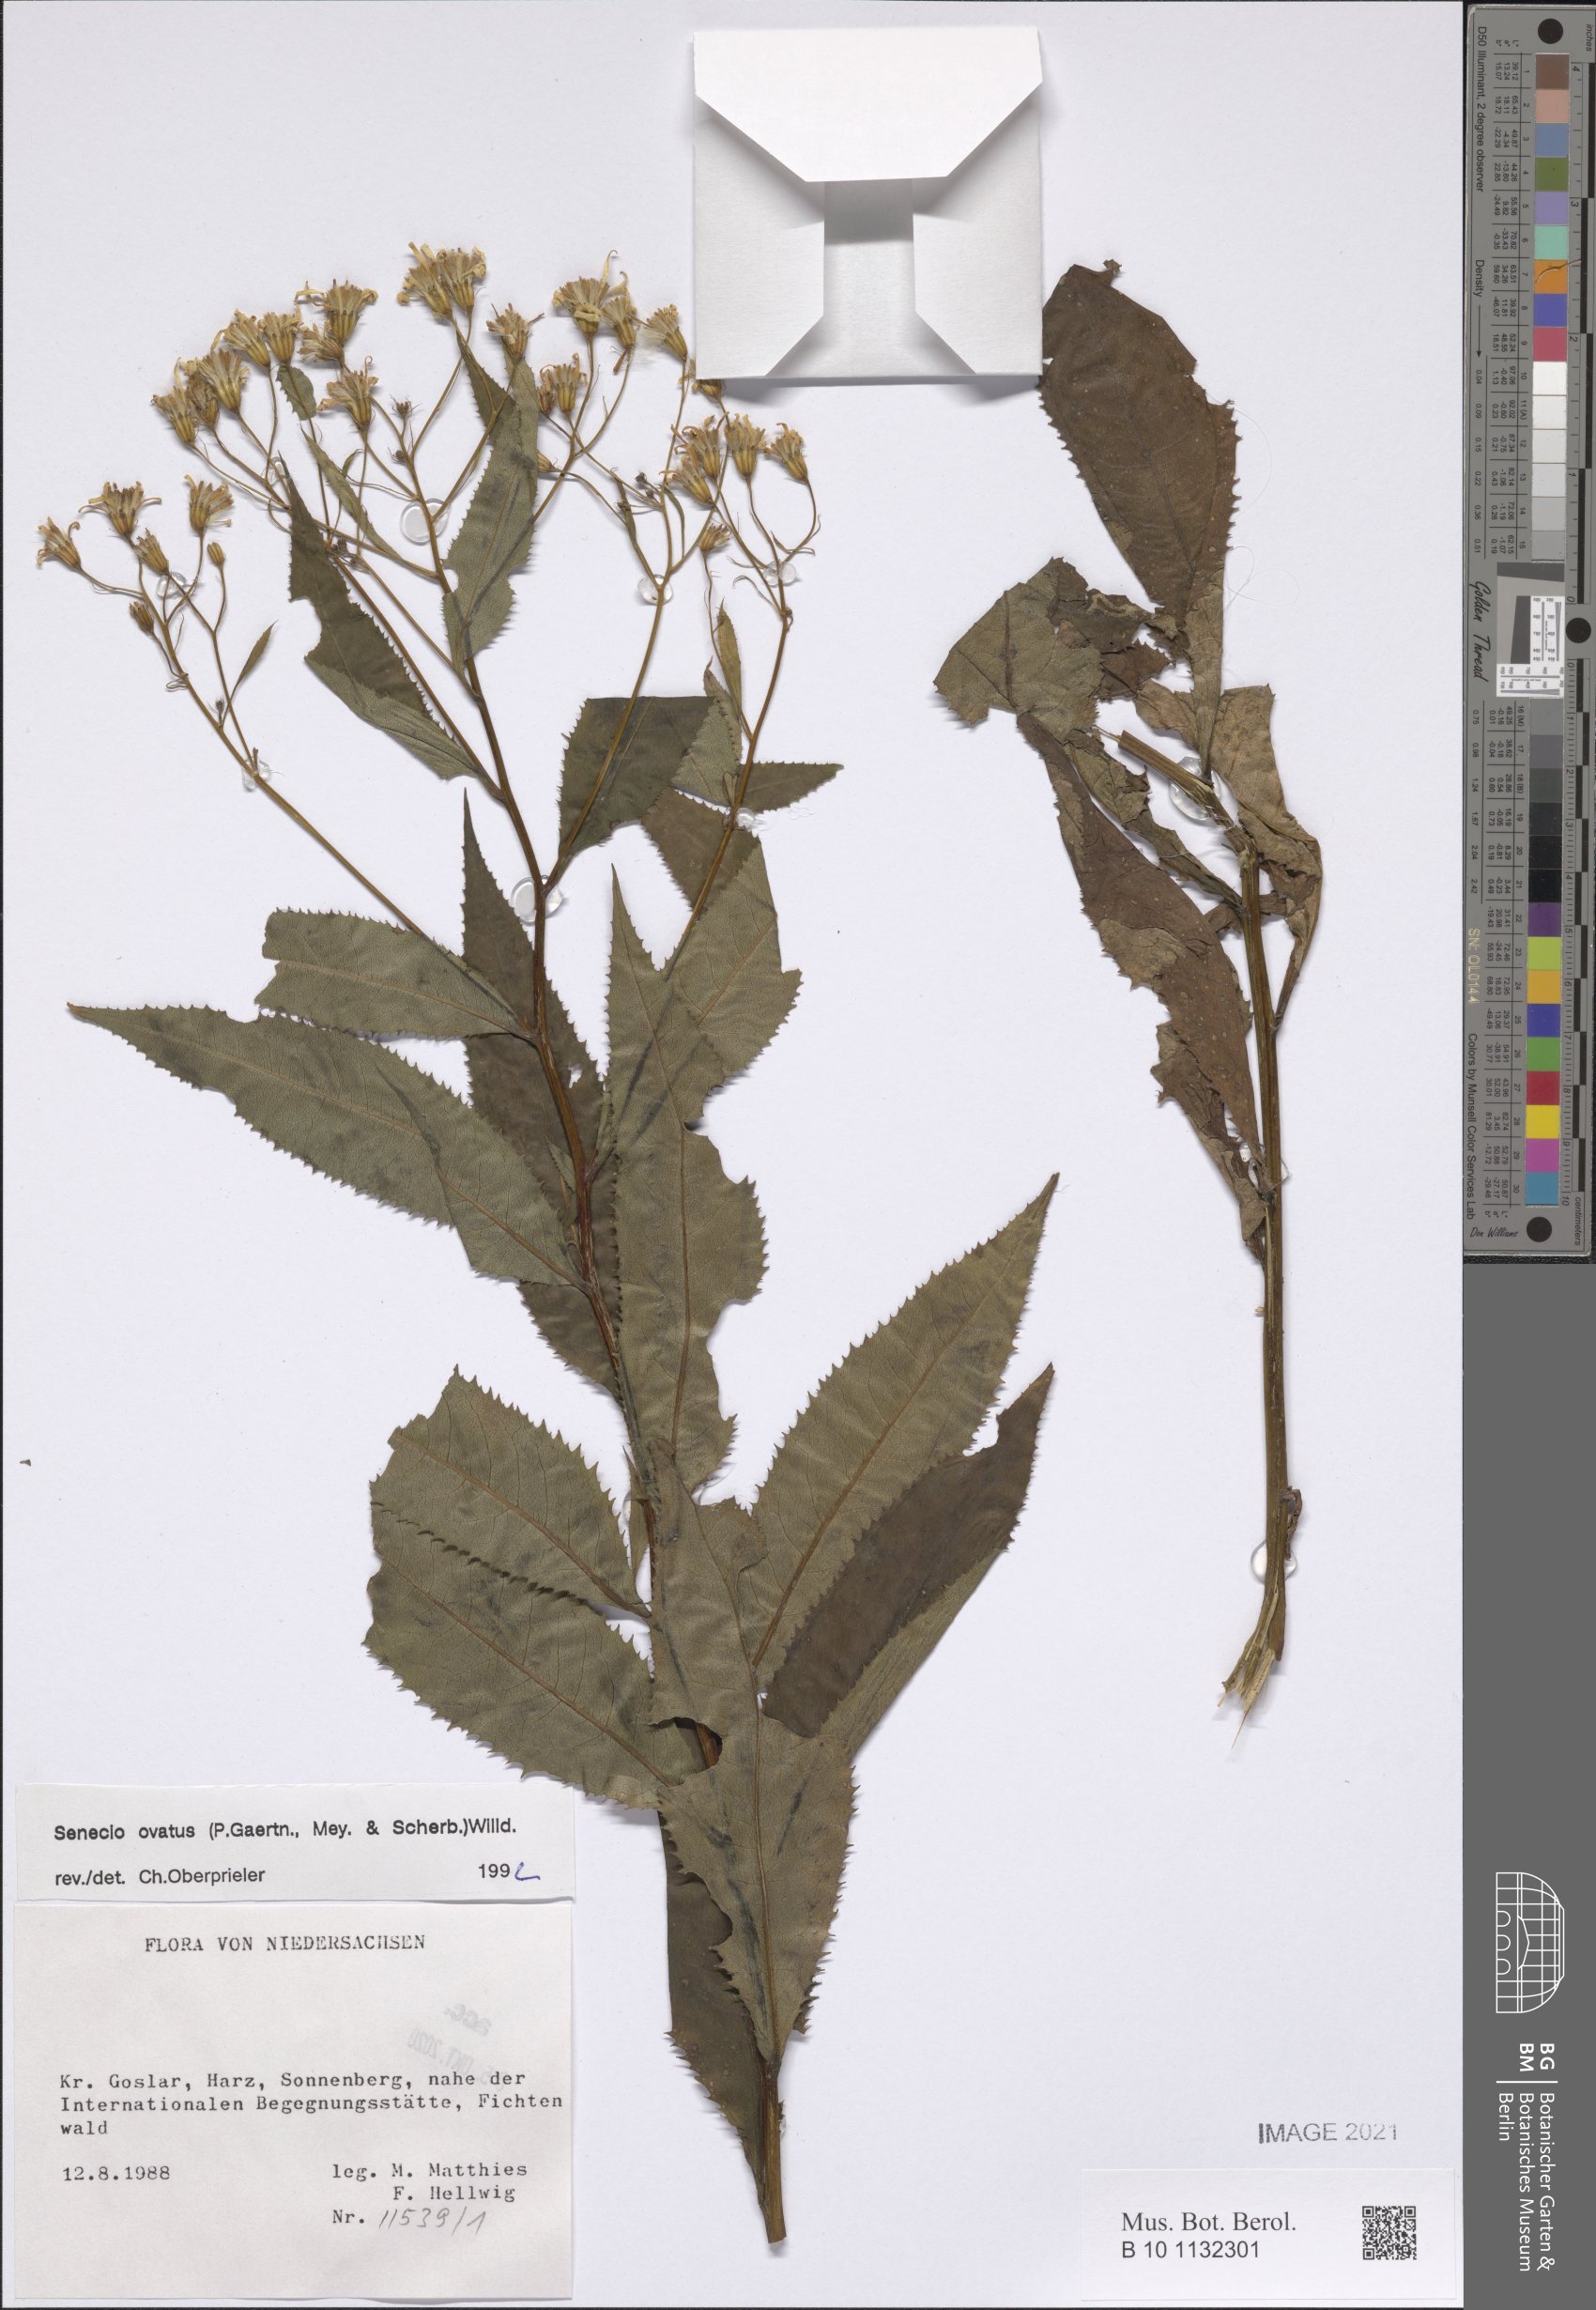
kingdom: Plantae
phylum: Tracheophyta
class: Magnoliopsida
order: Asterales
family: Asteraceae
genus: Senecio
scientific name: Senecio ovatus
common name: Wood ragwort
